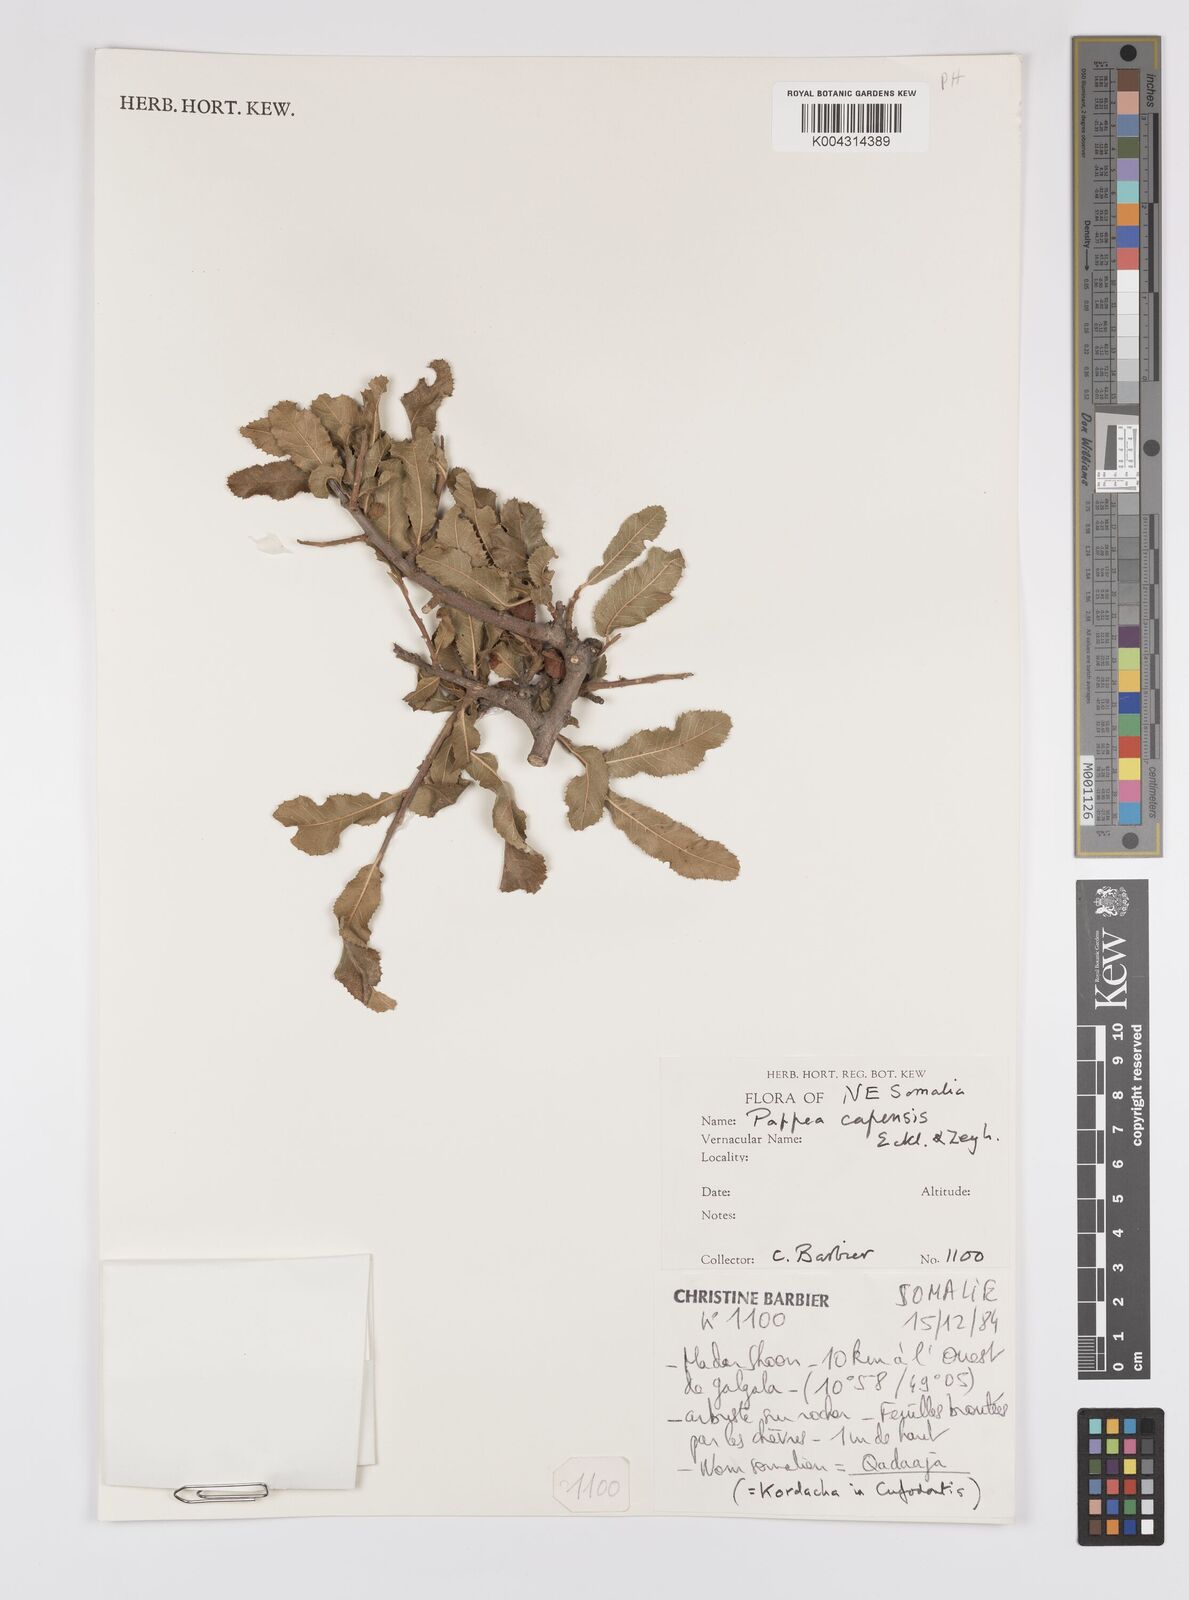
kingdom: Plantae
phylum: Tracheophyta
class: Magnoliopsida
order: Sapindales
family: Sapindaceae
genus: Pappea
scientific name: Pappea capensis
